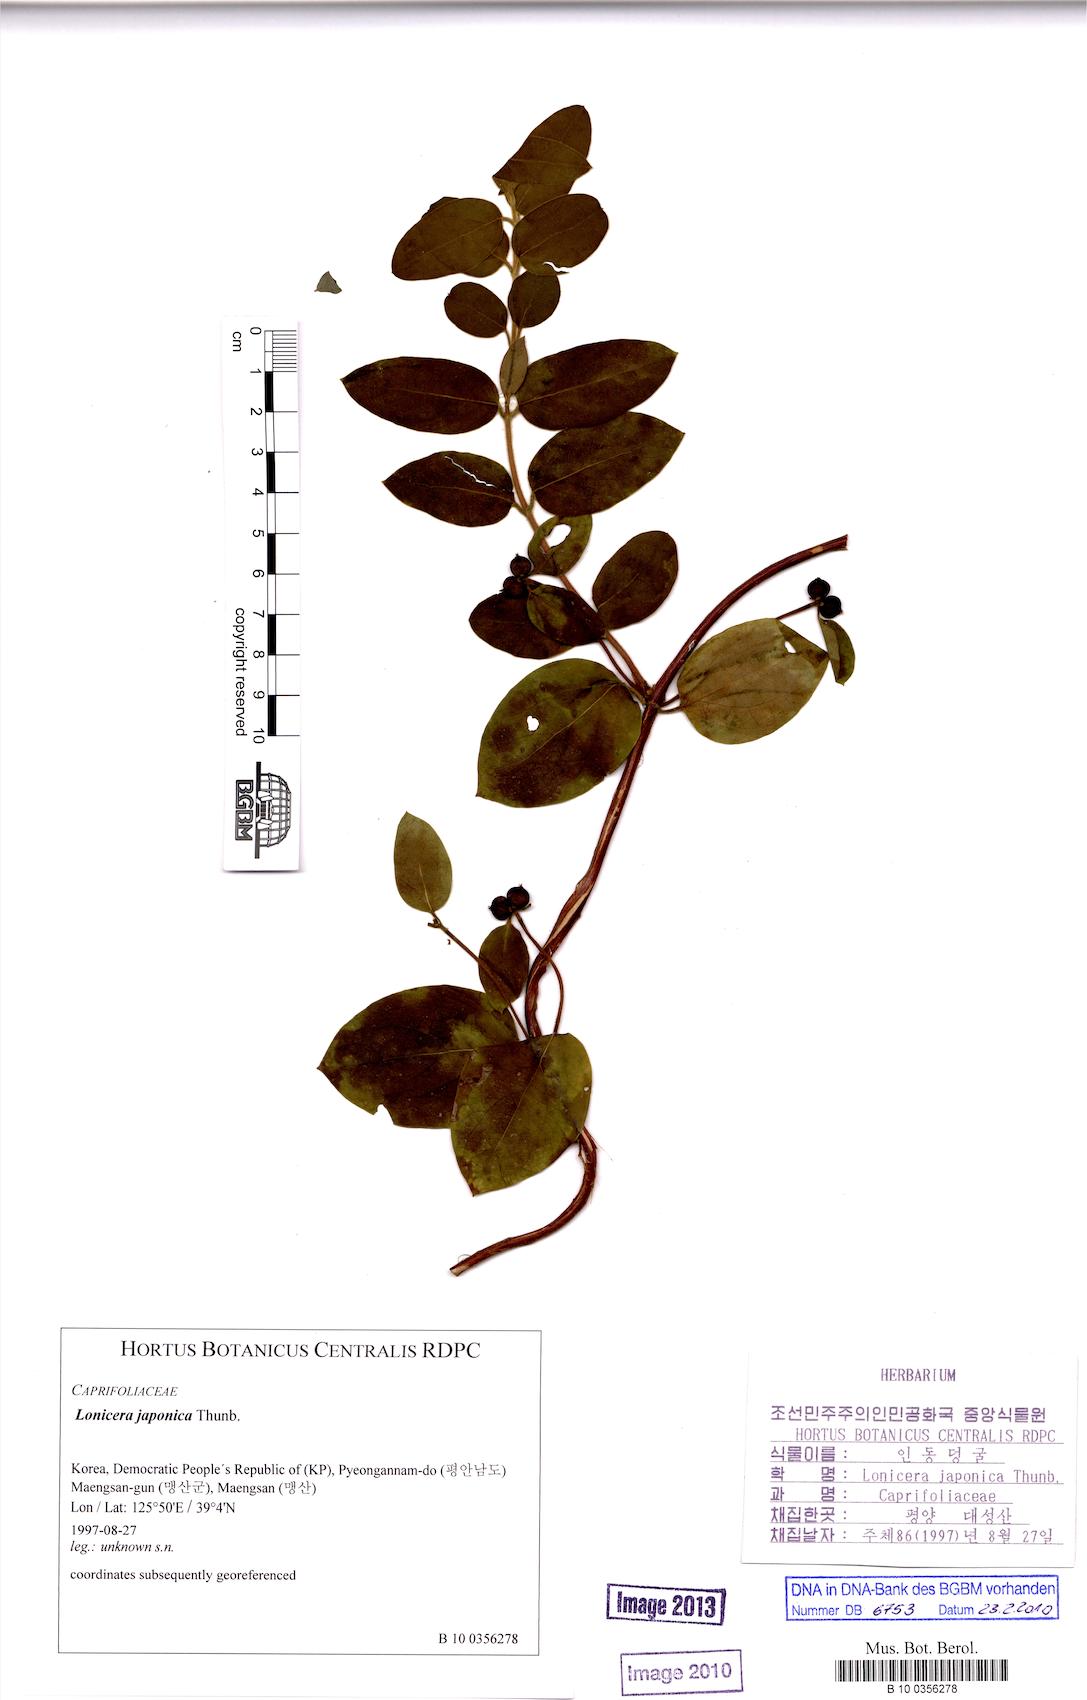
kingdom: Plantae
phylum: Tracheophyta
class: Magnoliopsida
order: Dipsacales
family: Caprifoliaceae
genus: Lonicera
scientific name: Lonicera japonica
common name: Japanese honeysuckle
